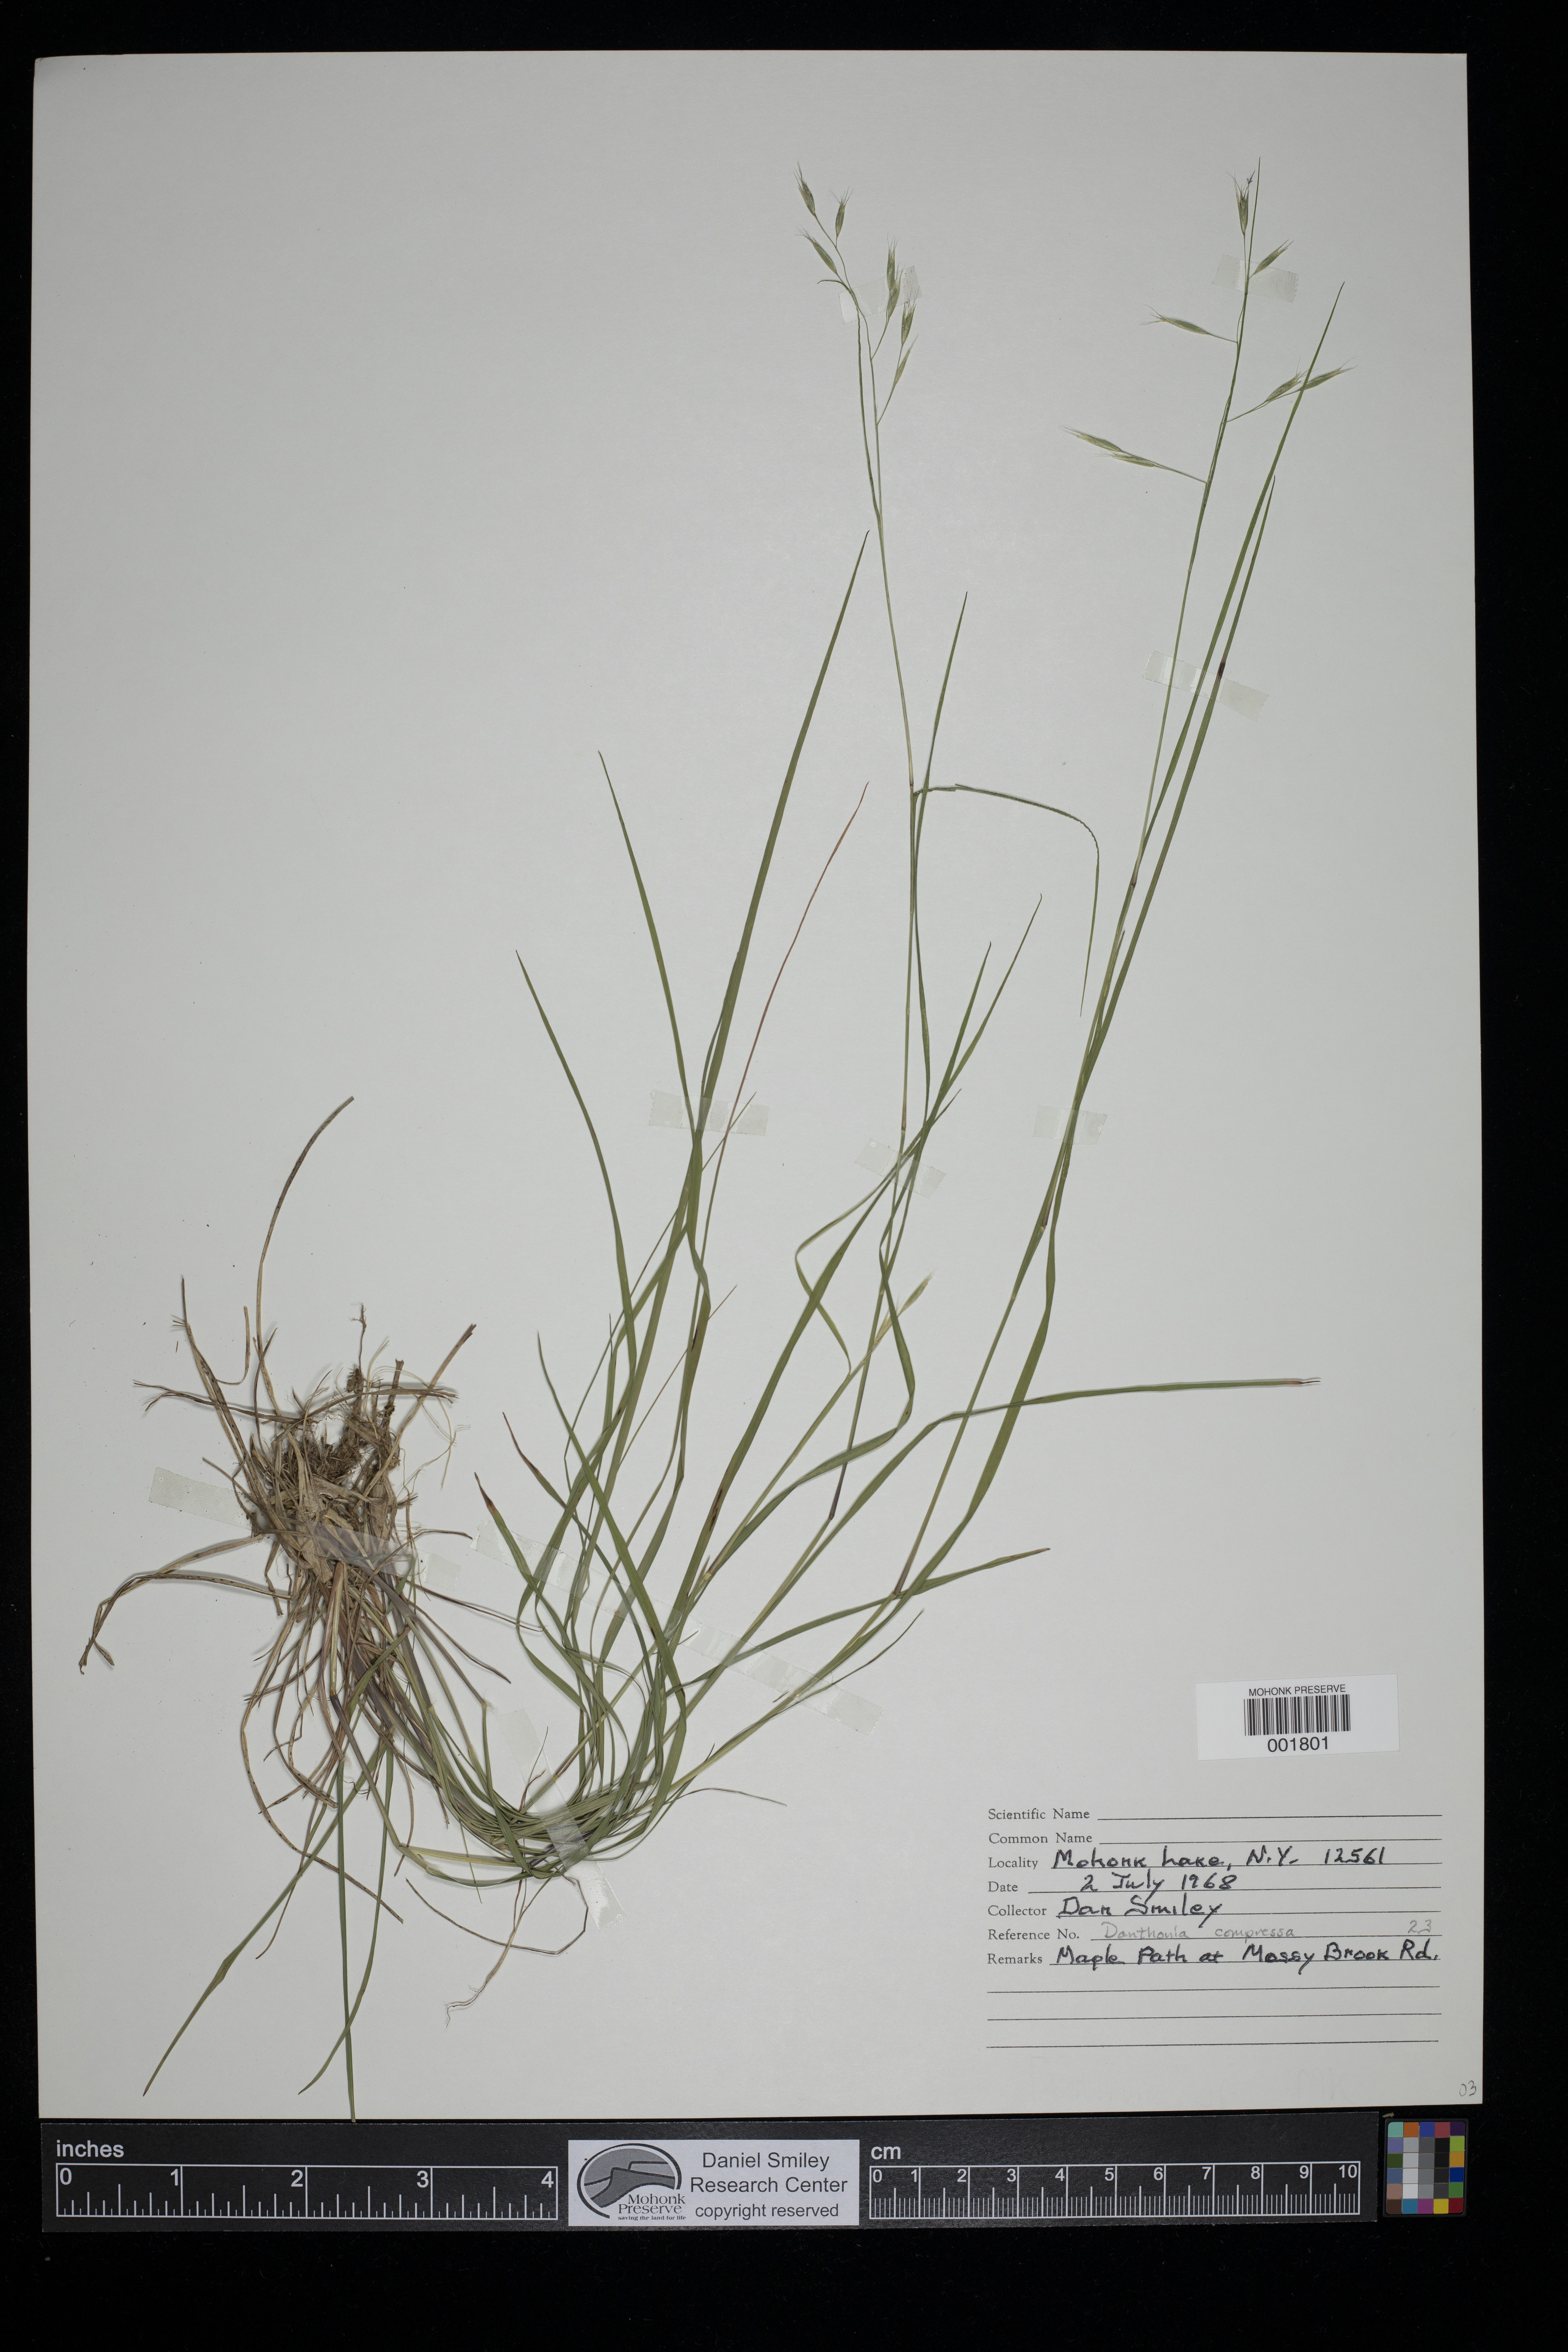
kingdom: Plantae
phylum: Tracheophyta
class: Liliopsida
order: Poales
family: Poaceae
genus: Danthonia
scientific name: Danthonia compressa
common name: Flat-stem oat grass
